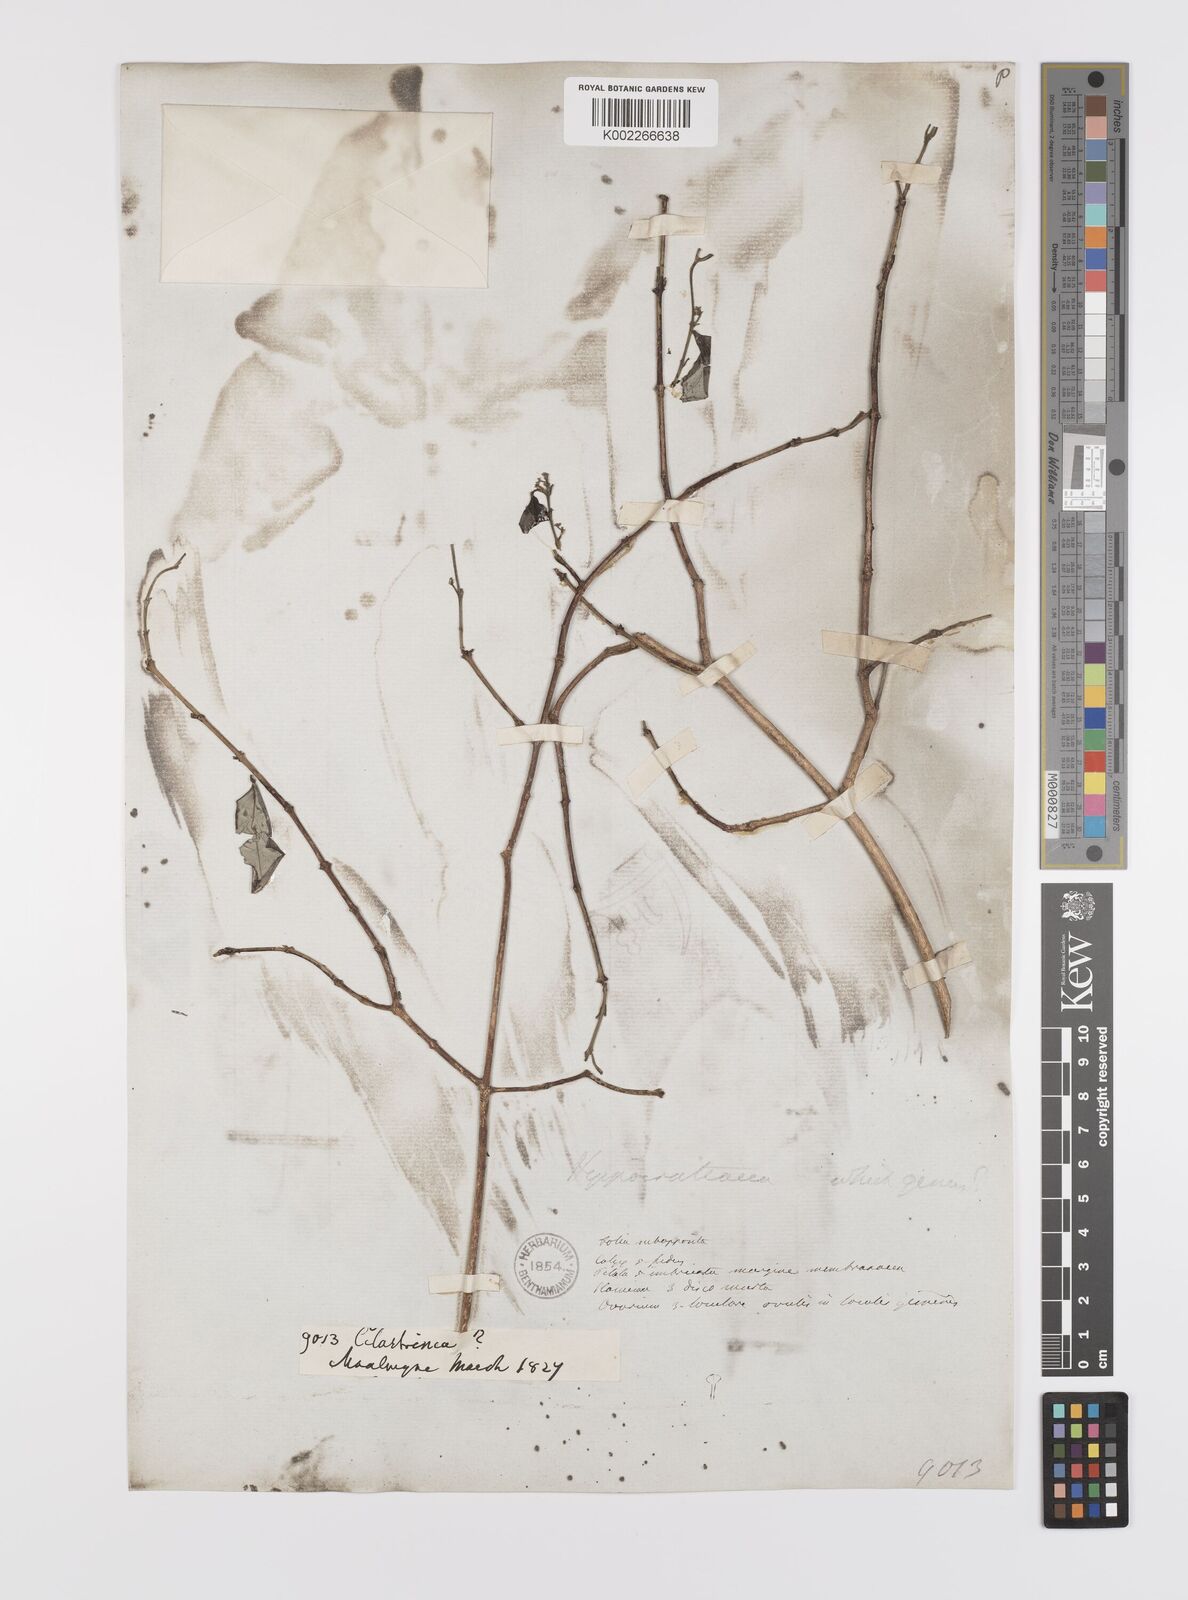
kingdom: Plantae
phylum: Tracheophyta
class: Magnoliopsida
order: Celastrales
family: Celastraceae
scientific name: Celastraceae
